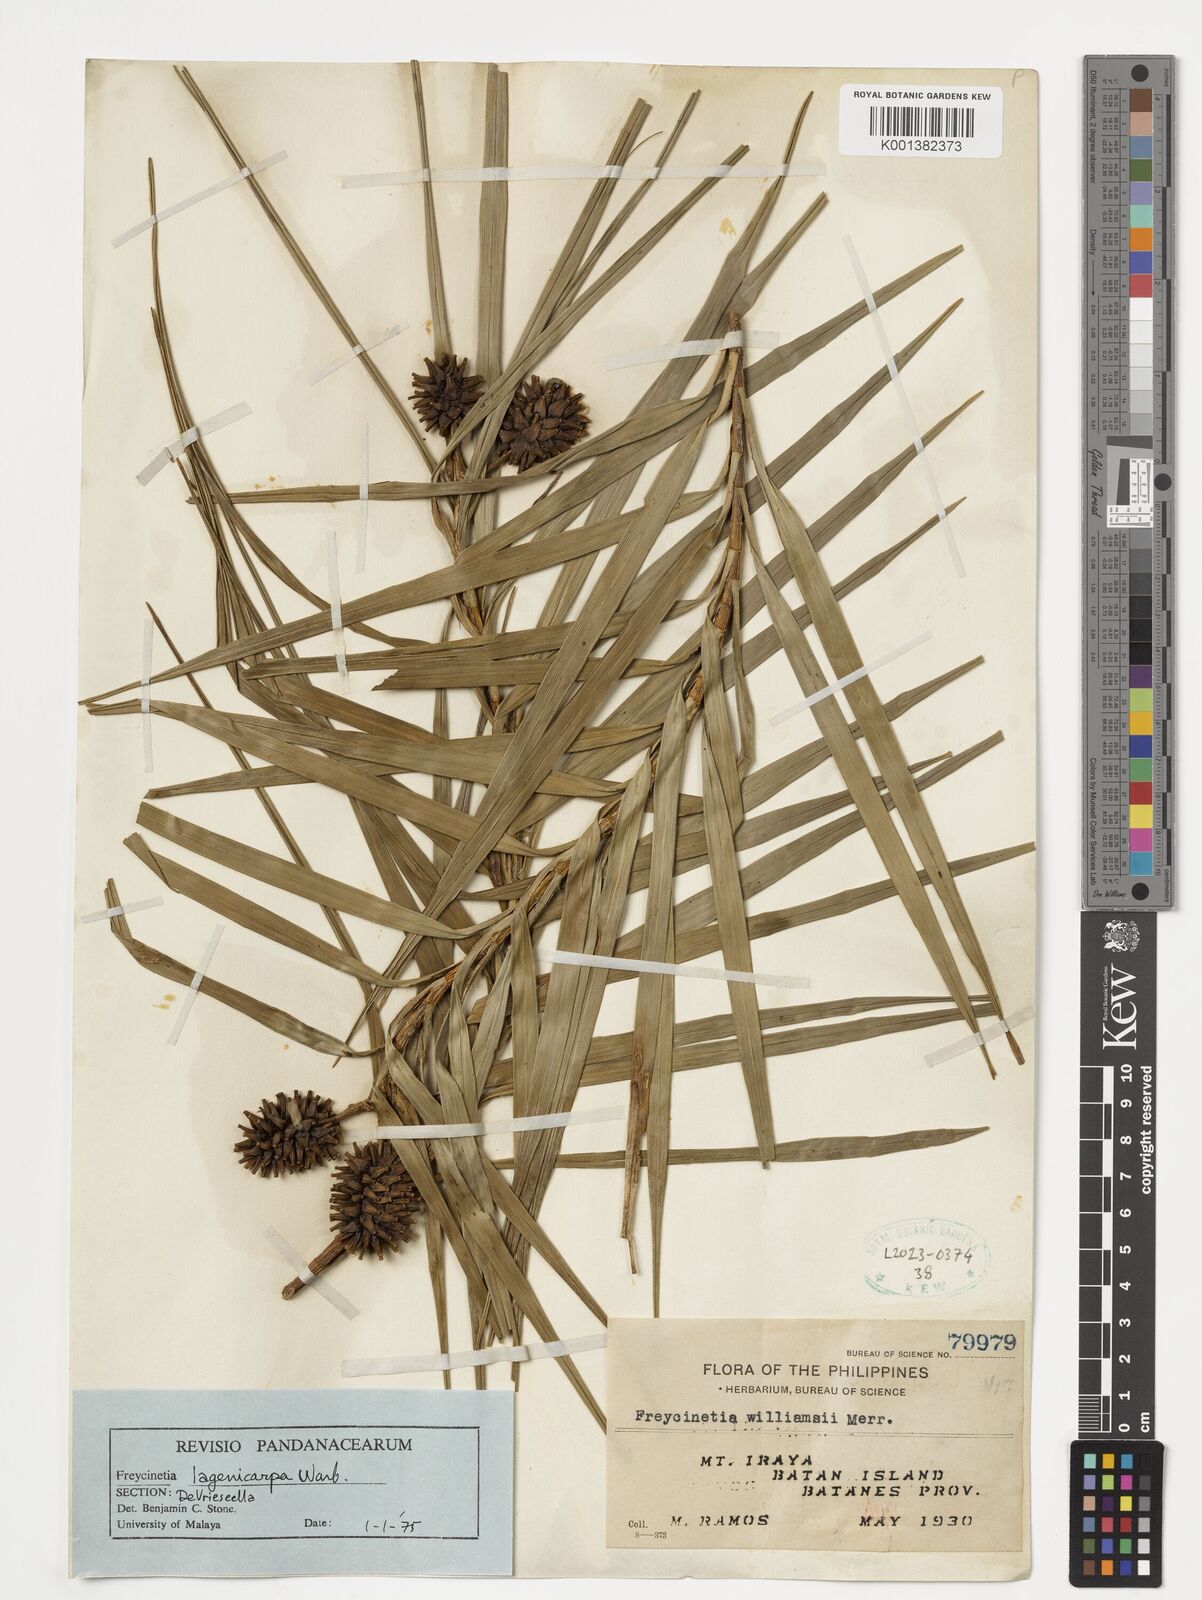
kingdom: Plantae
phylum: Tracheophyta
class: Liliopsida
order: Pandanales
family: Pandanaceae
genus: Freycinetia
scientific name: Freycinetia lagenicarpa
